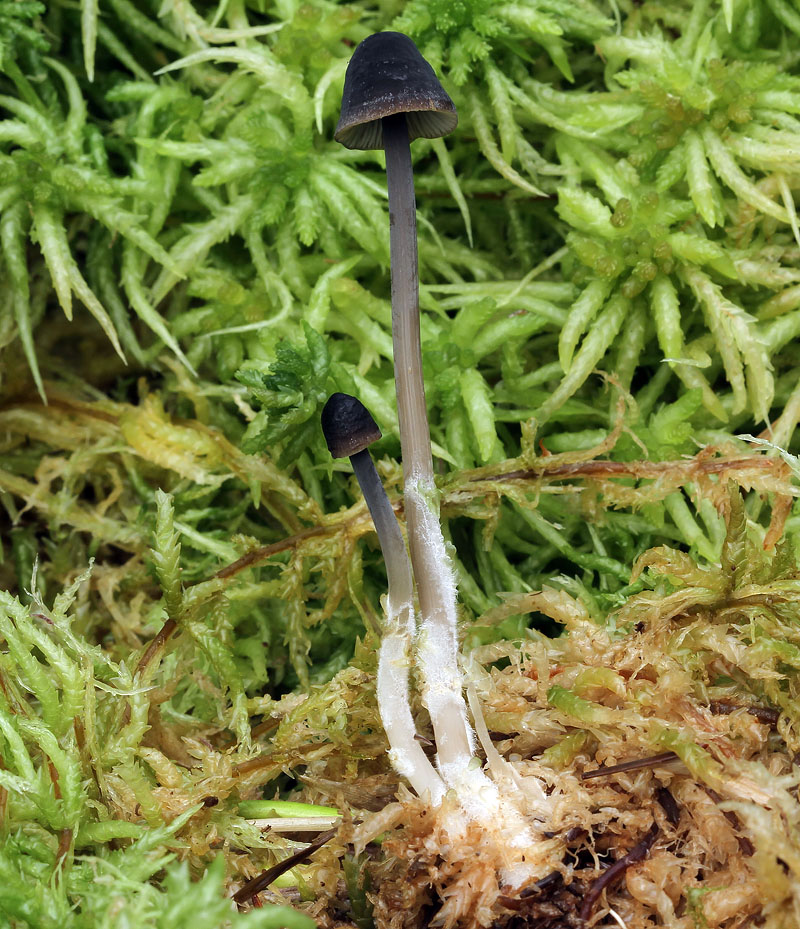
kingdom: Fungi
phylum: Basidiomycota
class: Agaricomycetes
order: Agaricales
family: Mycenaceae
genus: Mycena
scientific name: Mycena megaspora
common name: brusk-huesvamp
